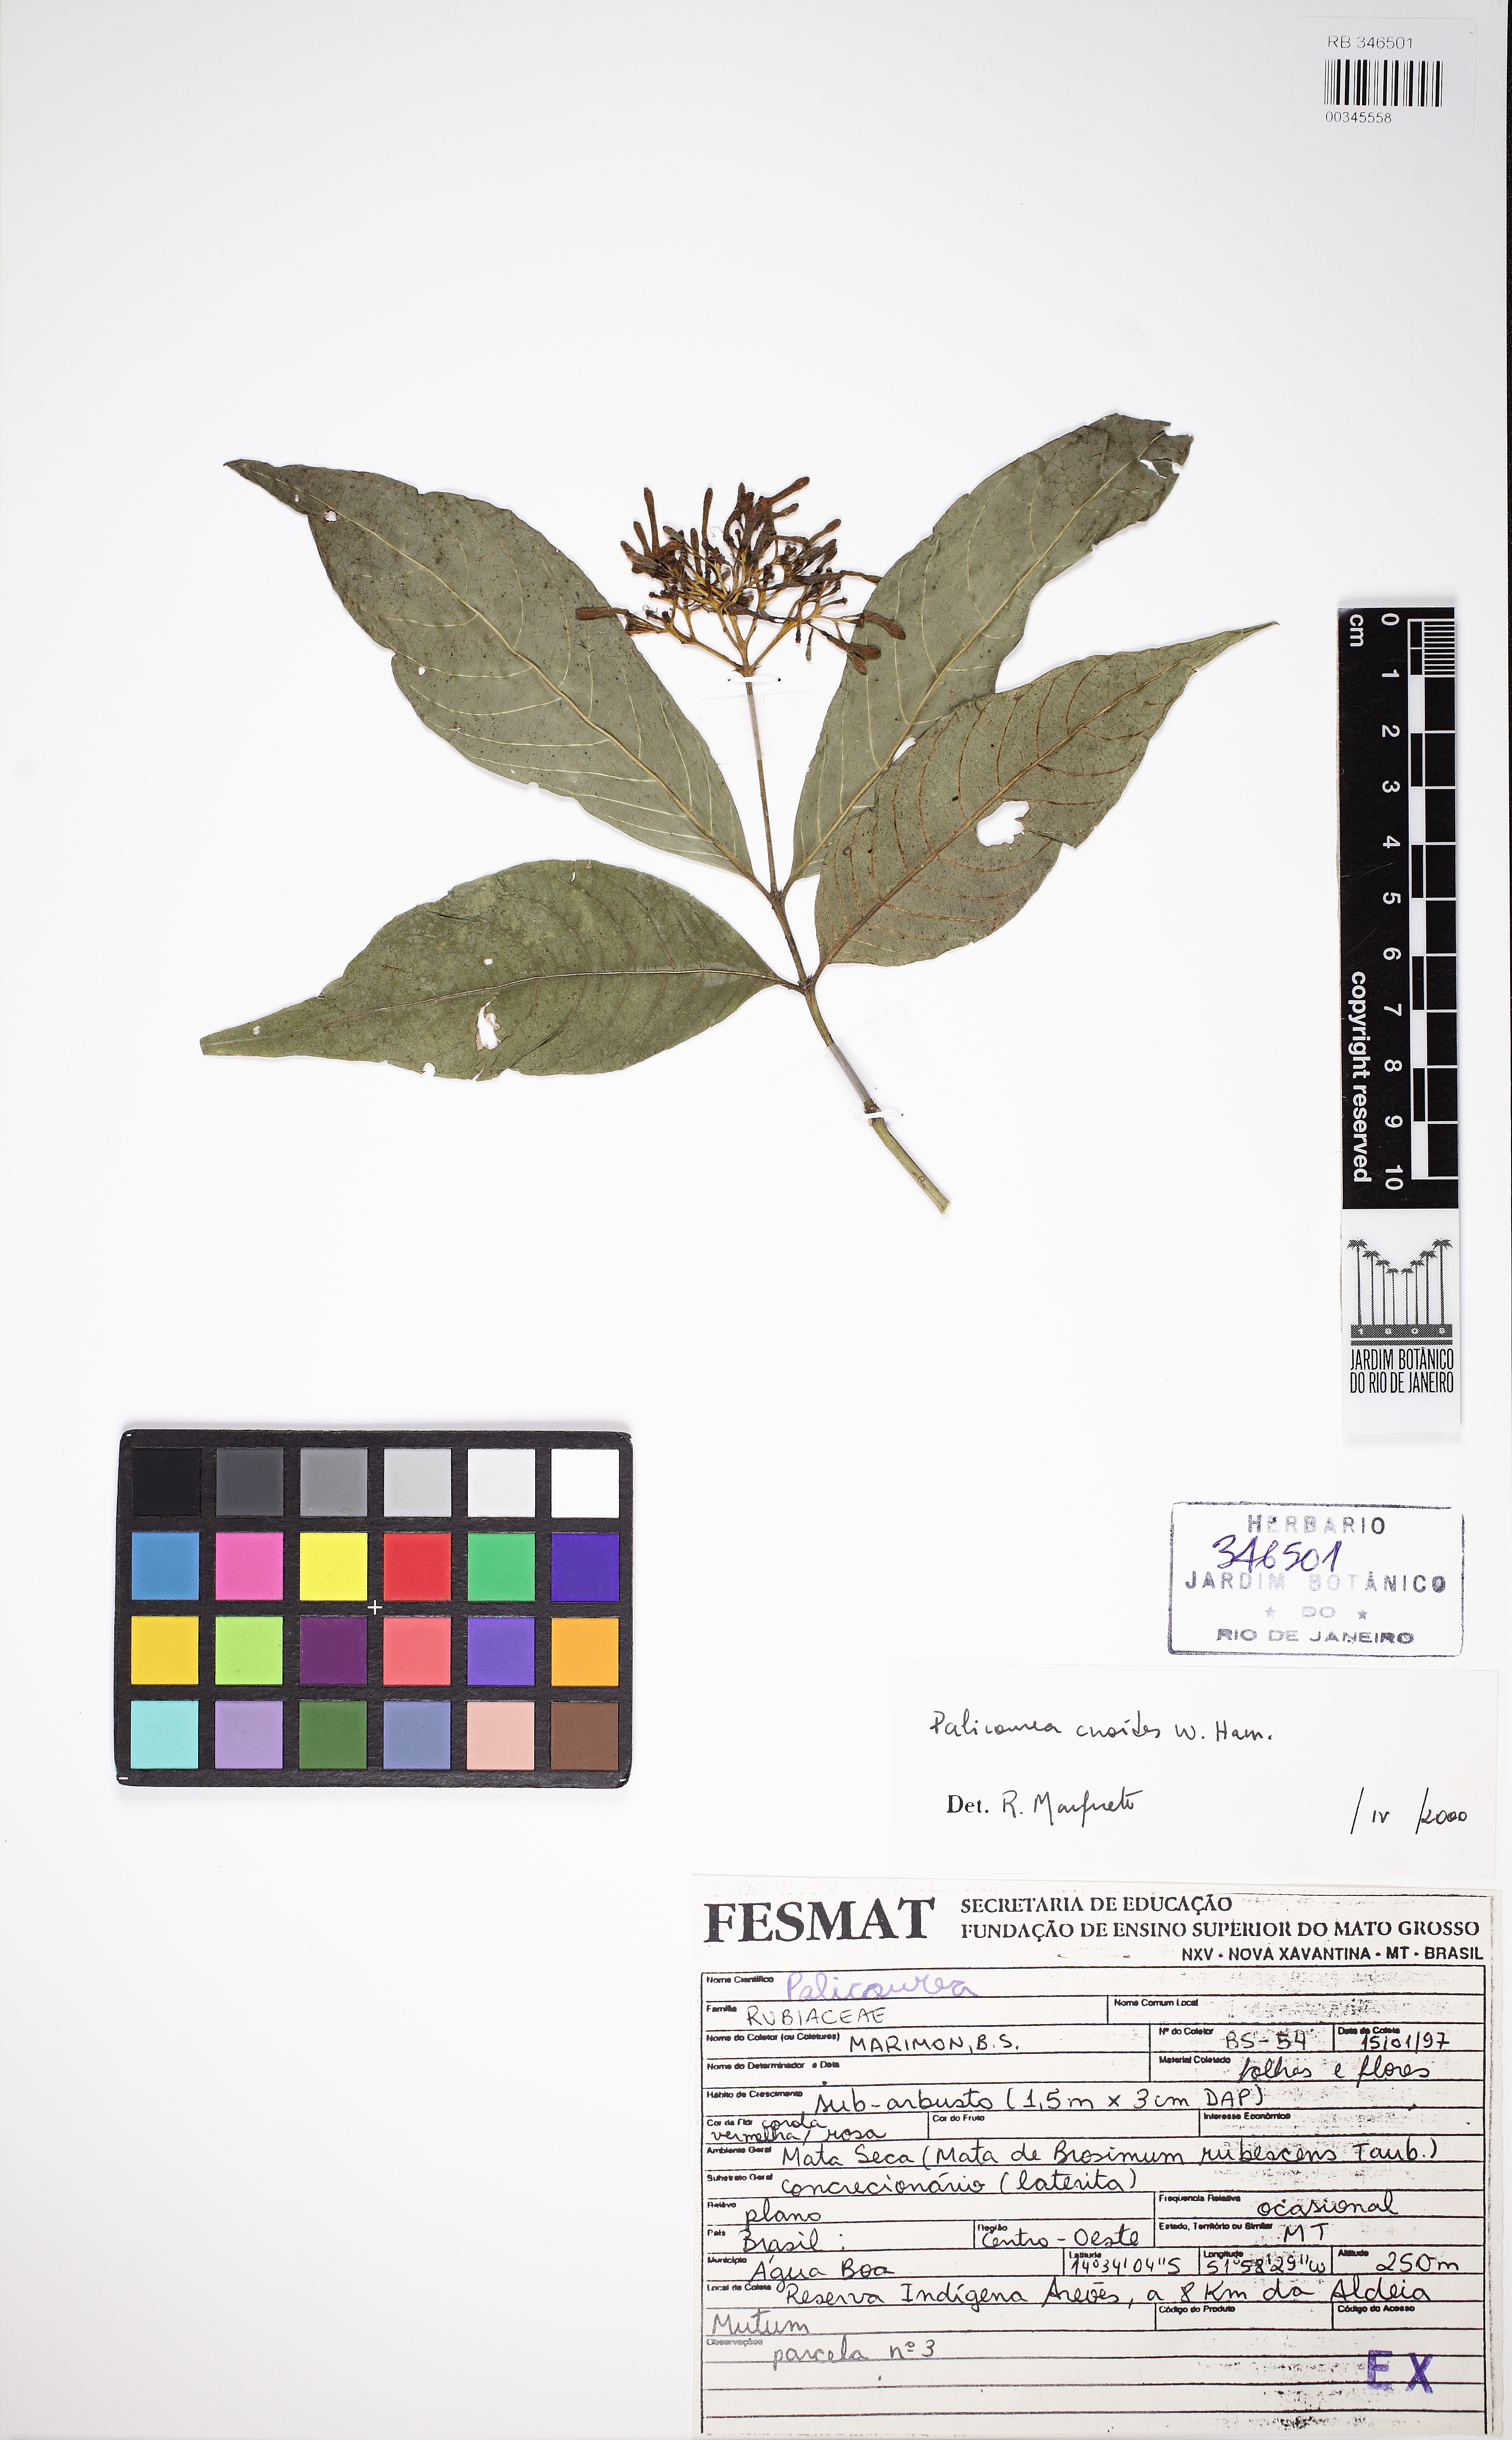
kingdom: Plantae
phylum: Tracheophyta
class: Magnoliopsida
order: Gentianales
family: Rubiaceae
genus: Palicourea
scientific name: Palicourea
